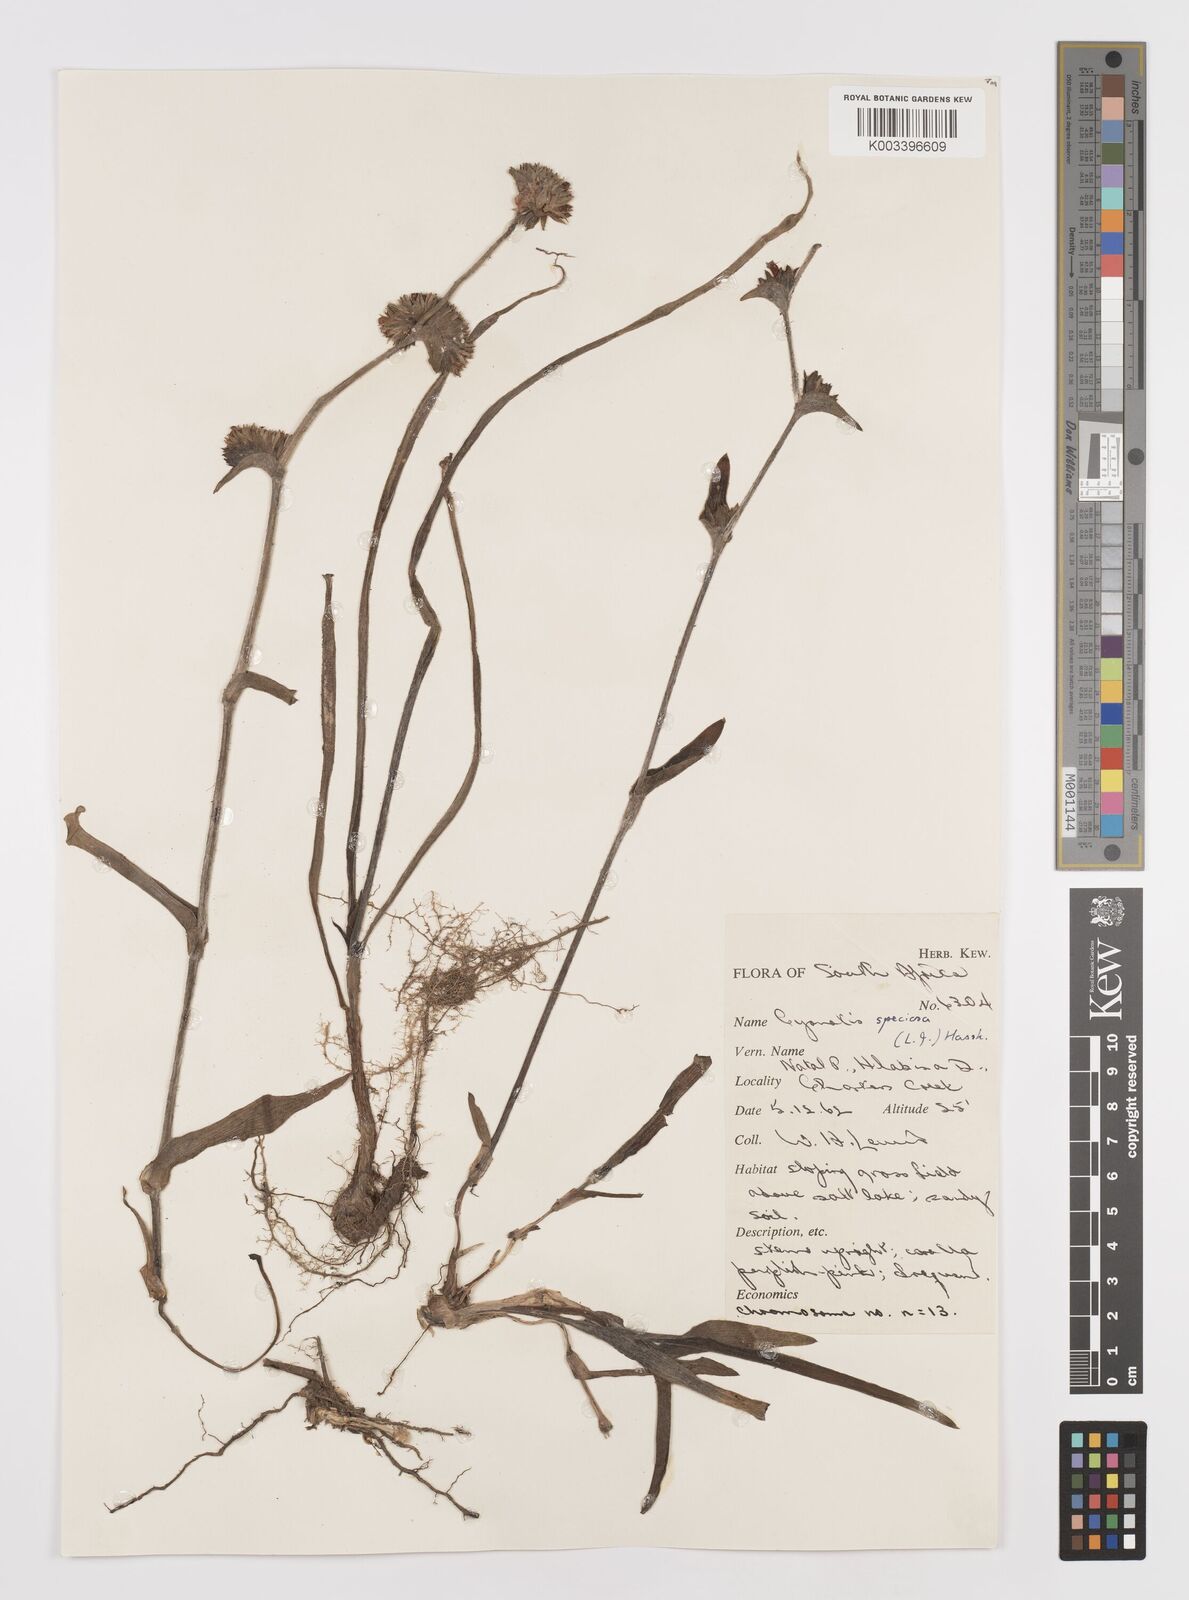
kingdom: Plantae
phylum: Tracheophyta
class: Liliopsida
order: Commelinales
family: Commelinaceae
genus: Cyanotis
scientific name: Cyanotis speciosa
